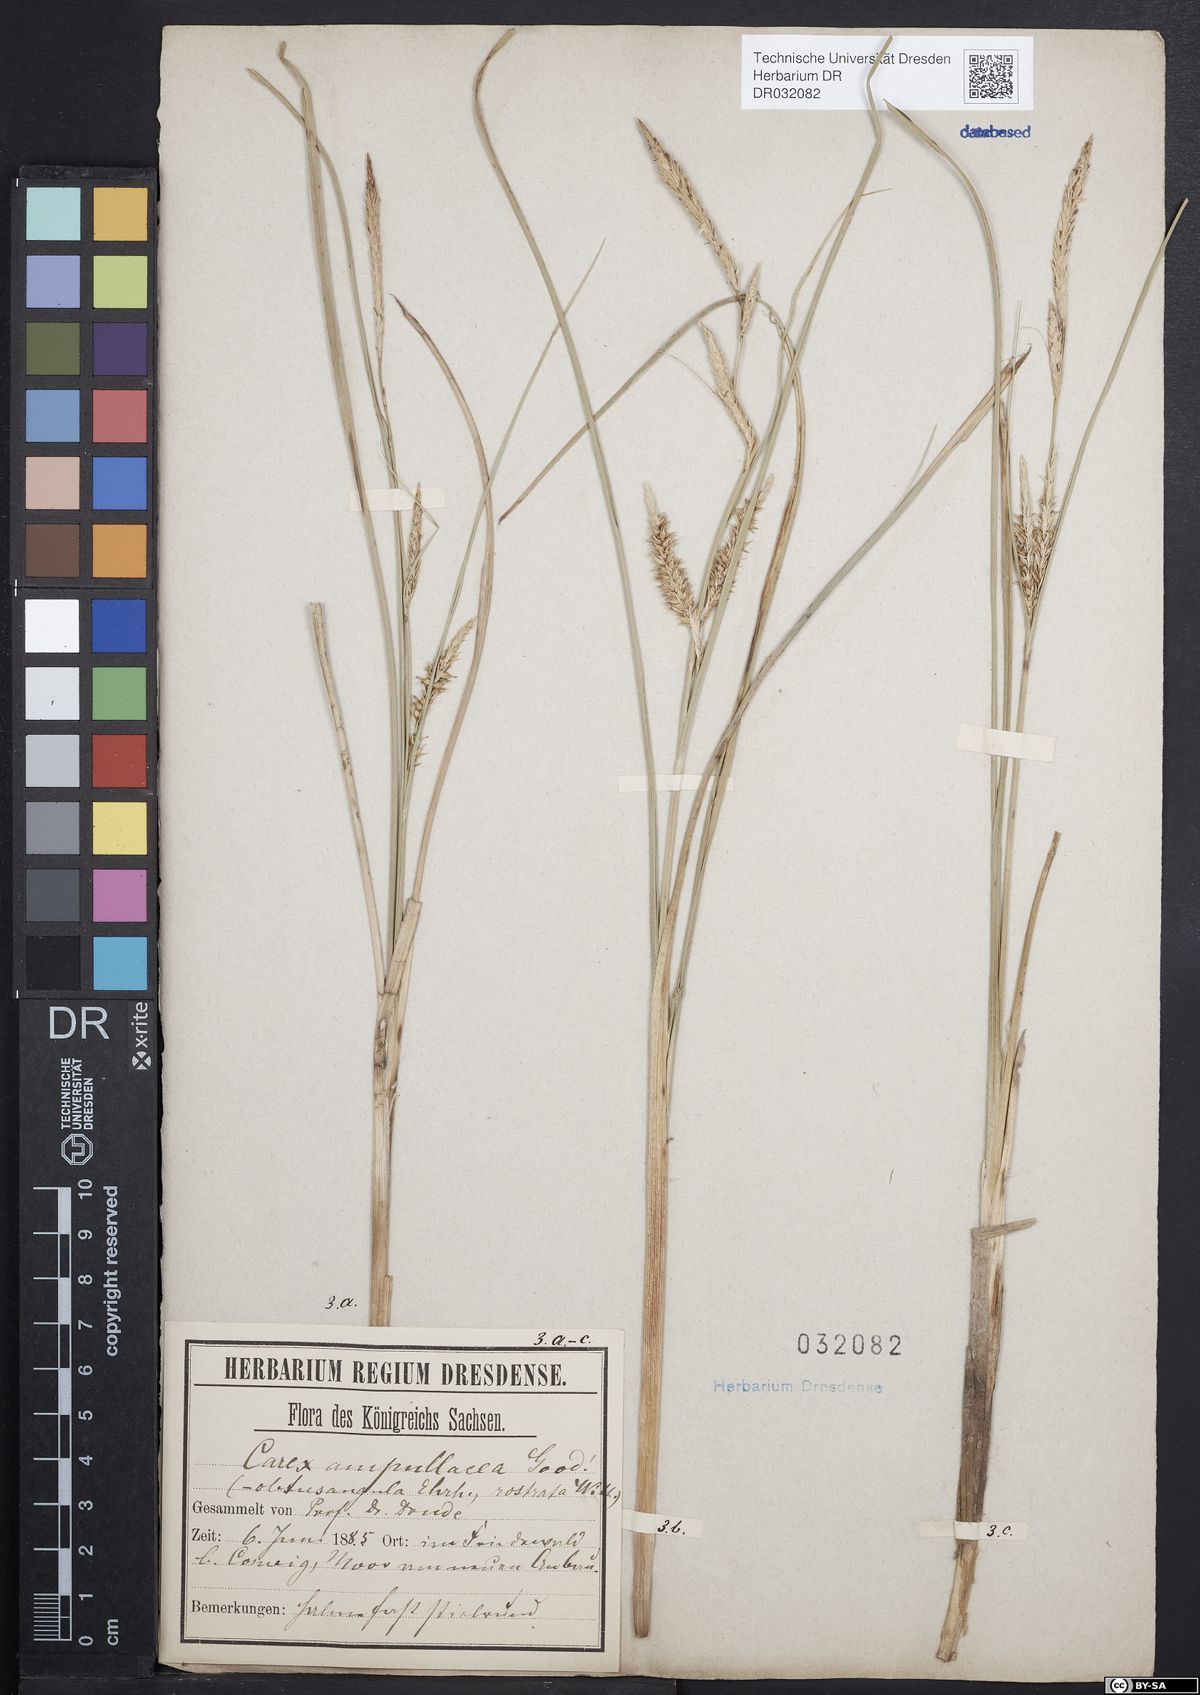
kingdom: Plantae
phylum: Tracheophyta
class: Liliopsida
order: Poales
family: Cyperaceae
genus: Carex
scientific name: Carex rostrata
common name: Bottle sedge
